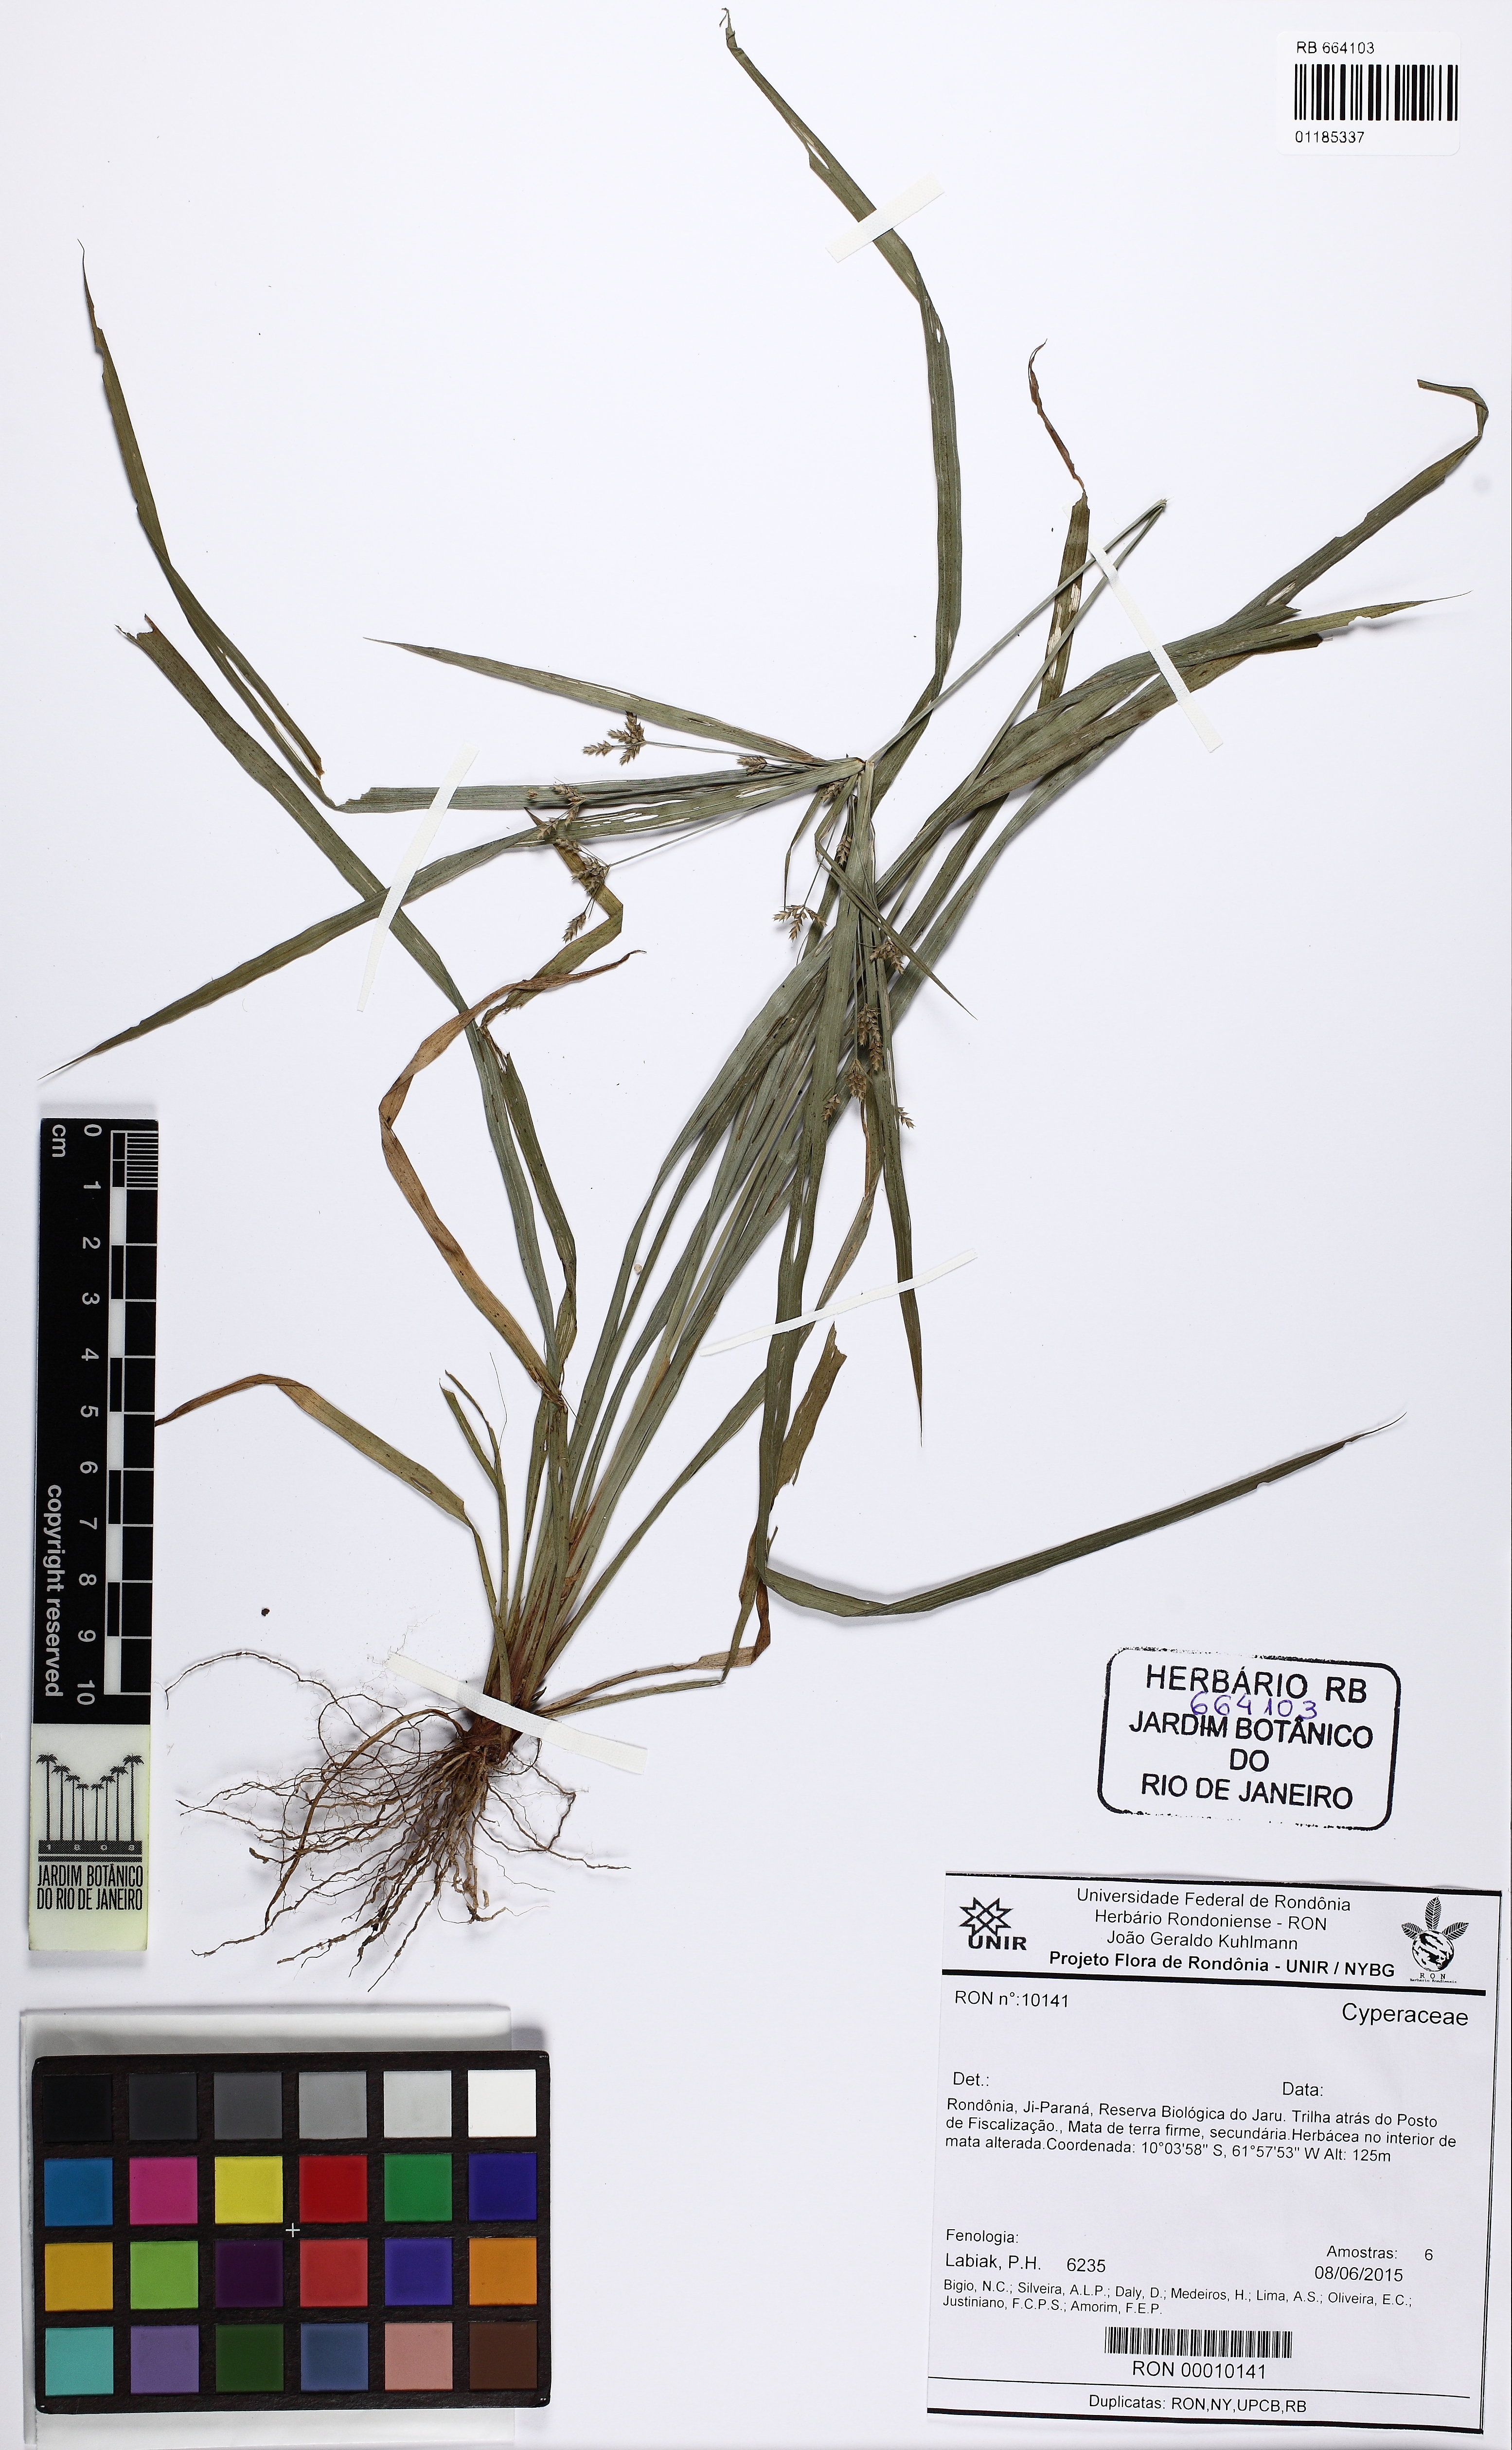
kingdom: Plantae
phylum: Tracheophyta
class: Liliopsida
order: Poales
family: Cyperaceae
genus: Cyperus
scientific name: Cyperus laxus
